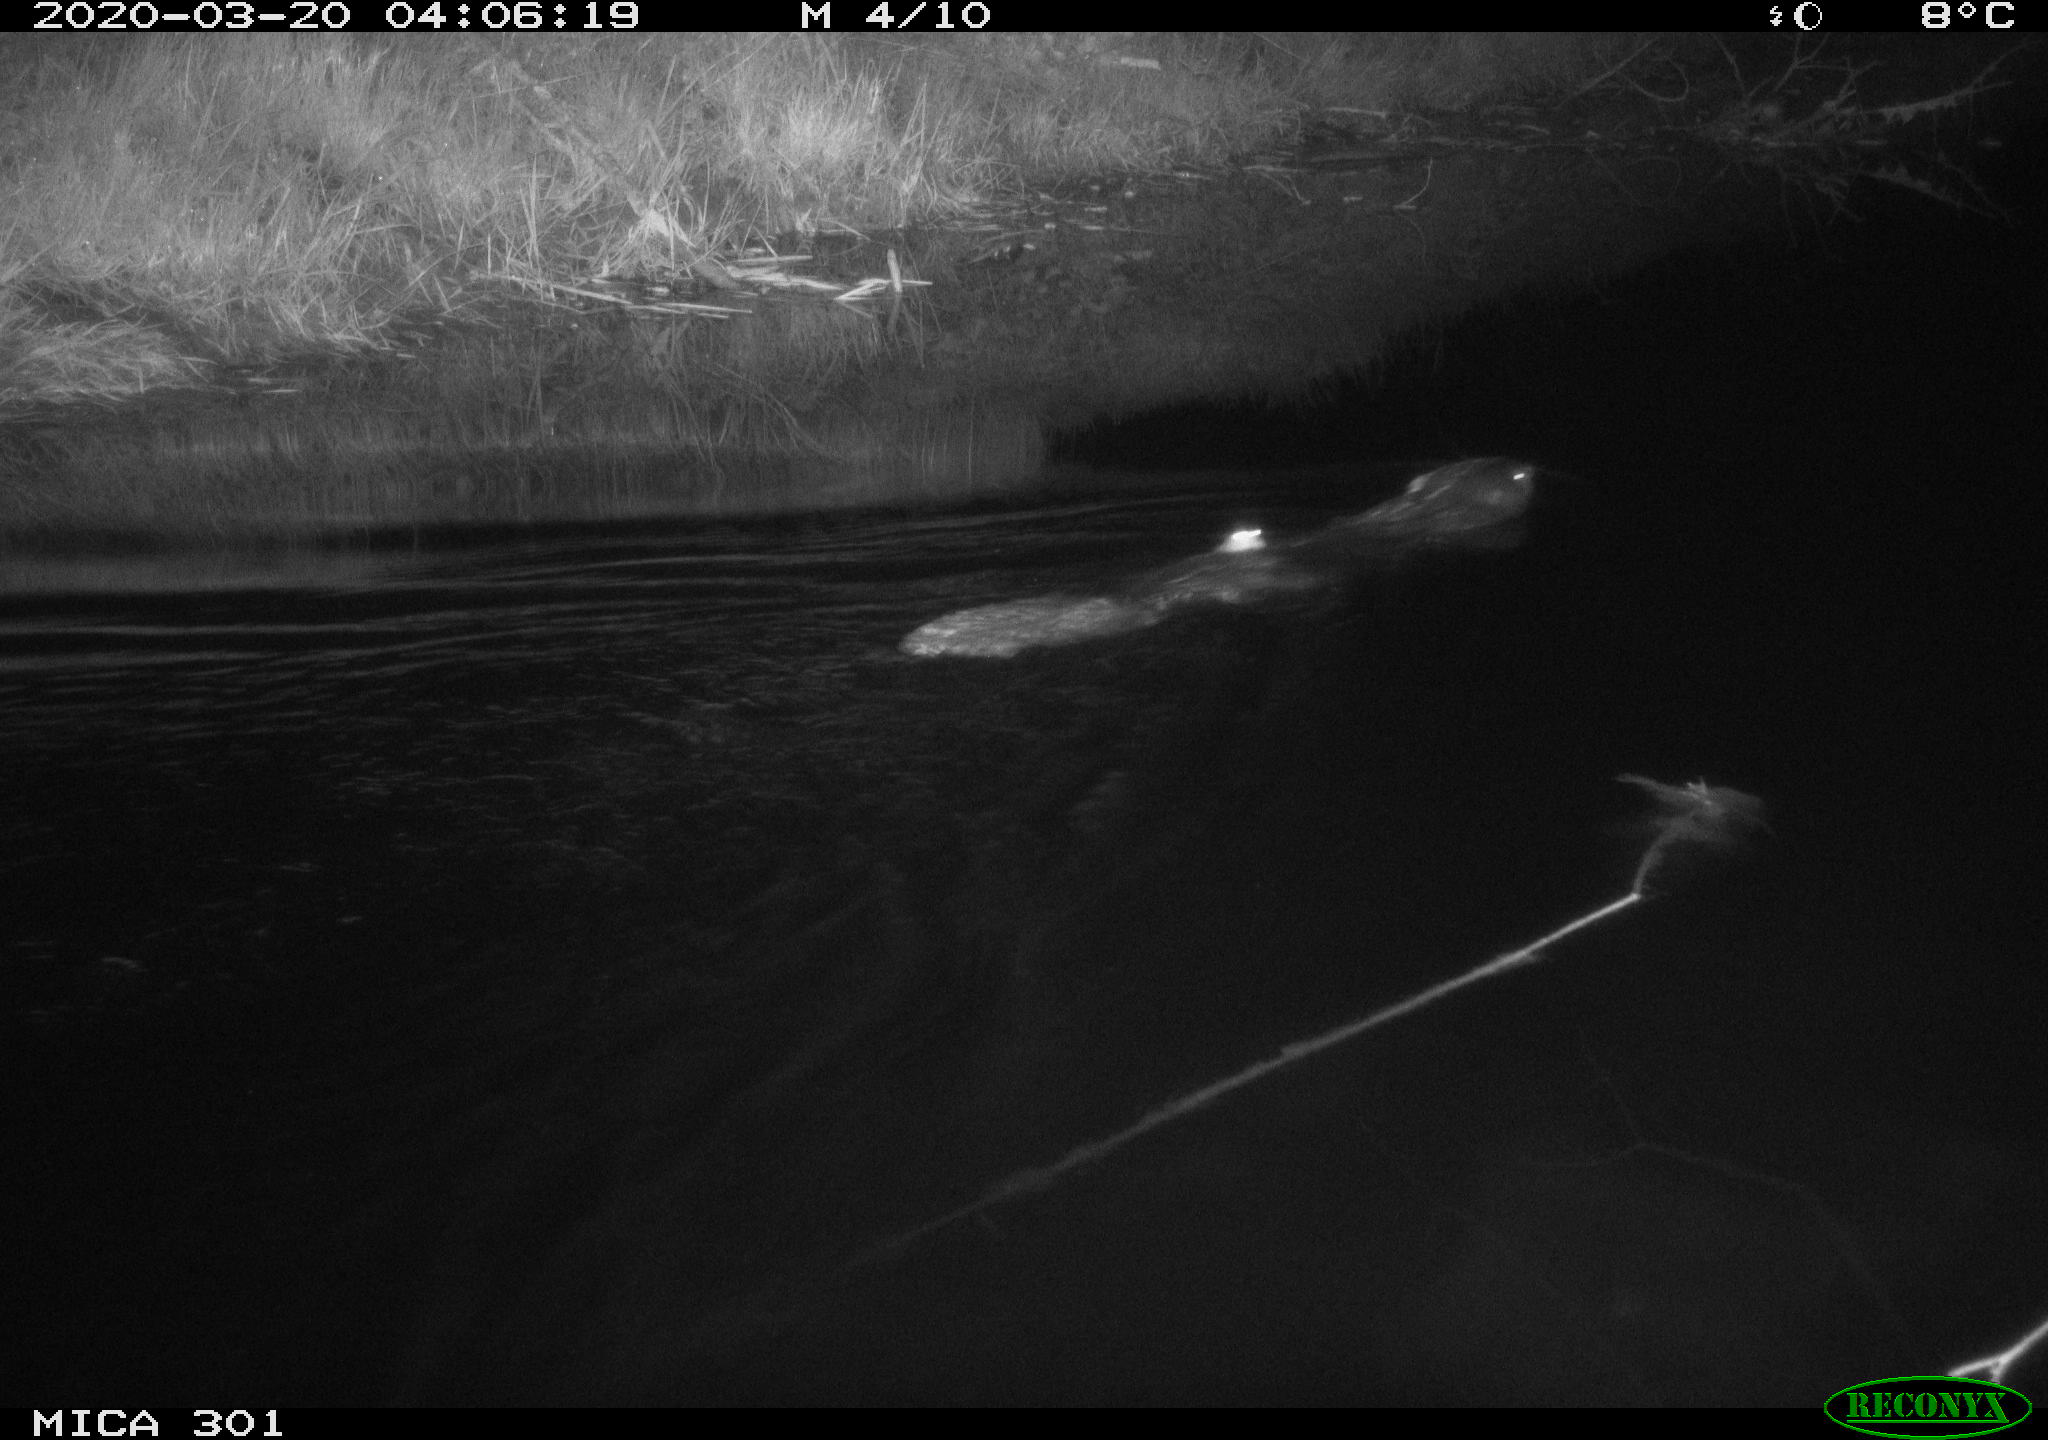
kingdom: Animalia
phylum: Chordata
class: Mammalia
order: Rodentia
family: Castoridae
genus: Castor
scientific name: Castor fiber
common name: Eurasian beaver
